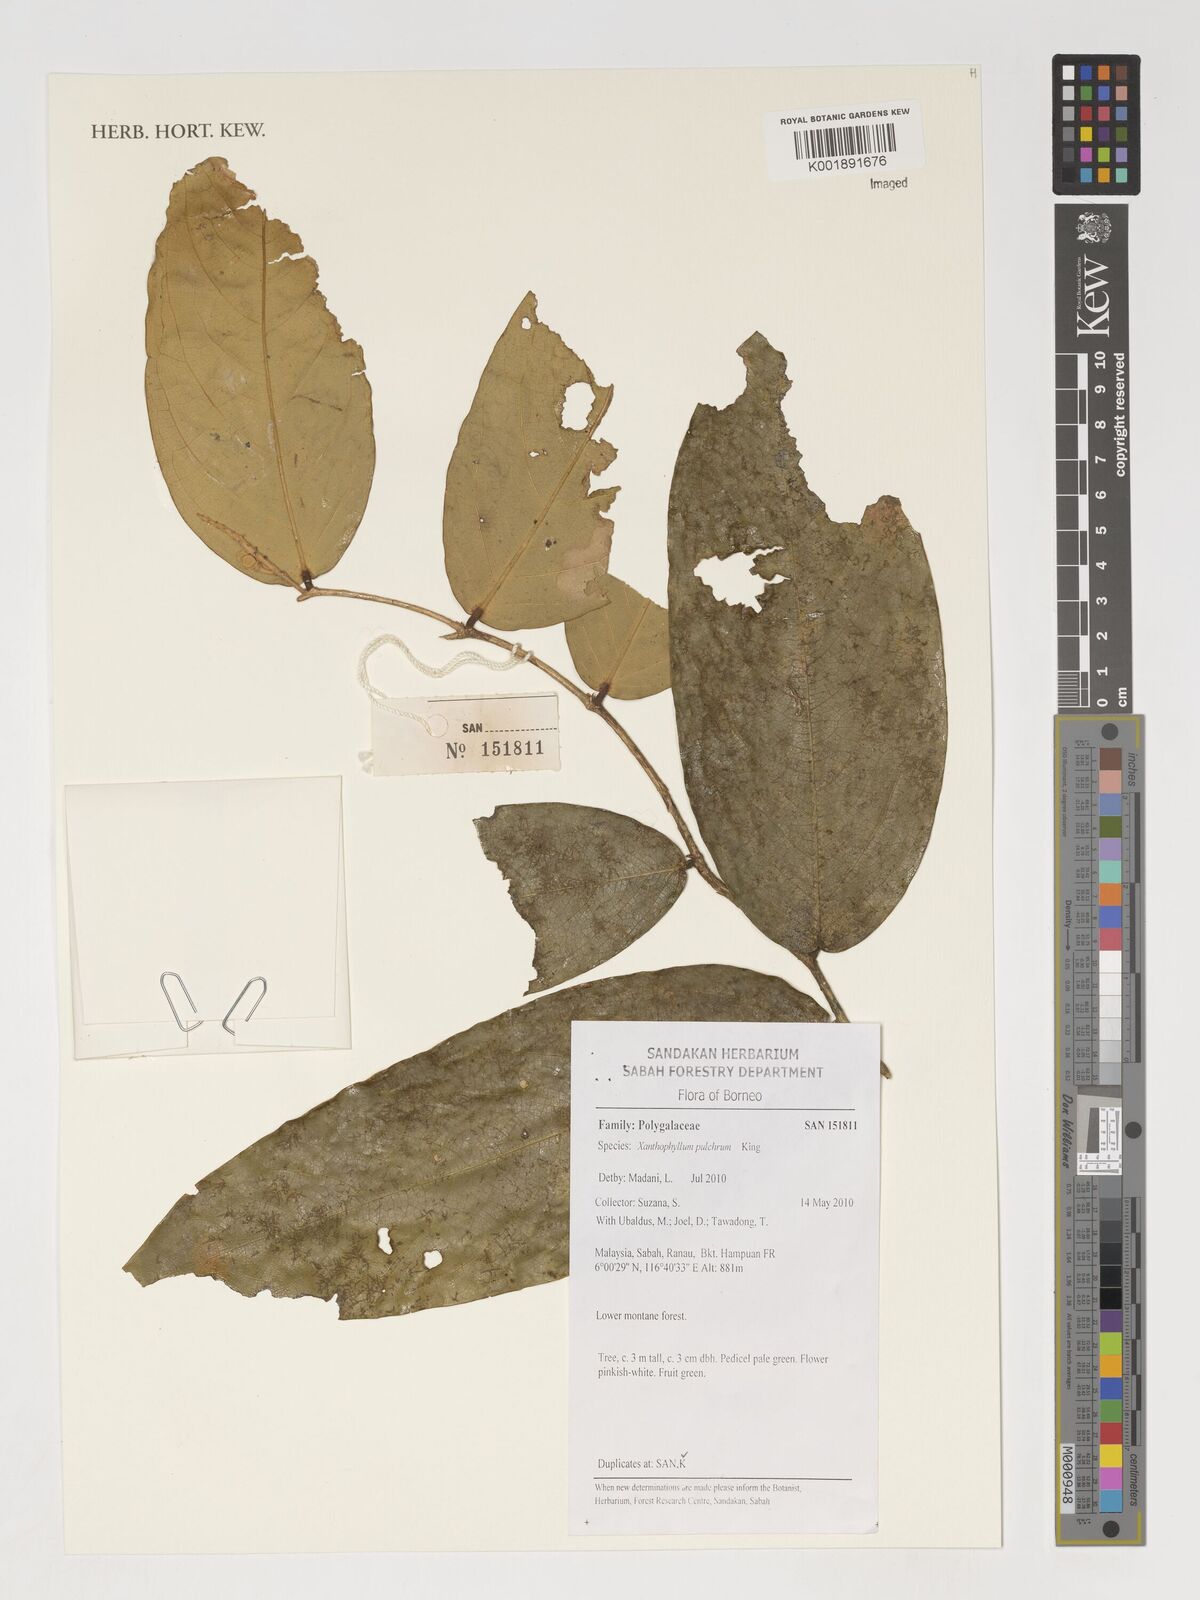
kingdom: Plantae
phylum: Tracheophyta
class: Magnoliopsida
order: Fabales
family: Polygalaceae
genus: Xanthophyllum
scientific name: Xanthophyllum pulchrum
